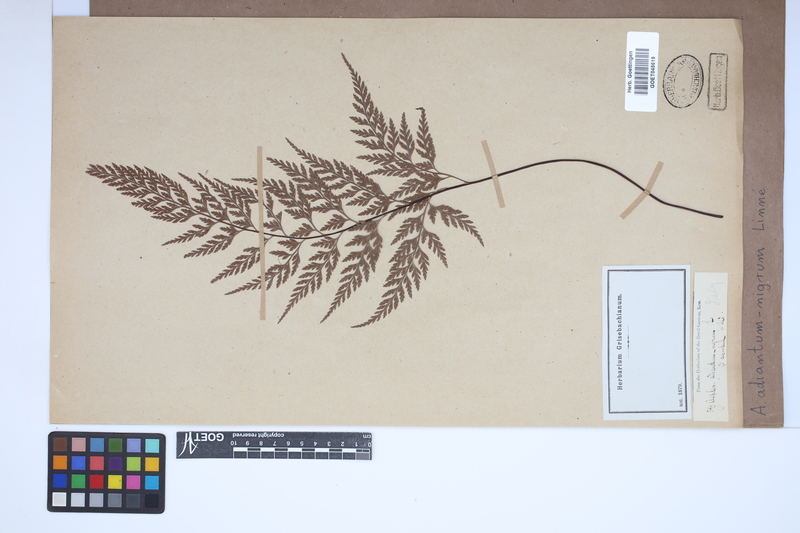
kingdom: Plantae
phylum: Tracheophyta
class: Polypodiopsida
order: Polypodiales
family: Aspleniaceae
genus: Asplenium
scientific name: Asplenium adiantum-nigrum
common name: Black spleenwort
